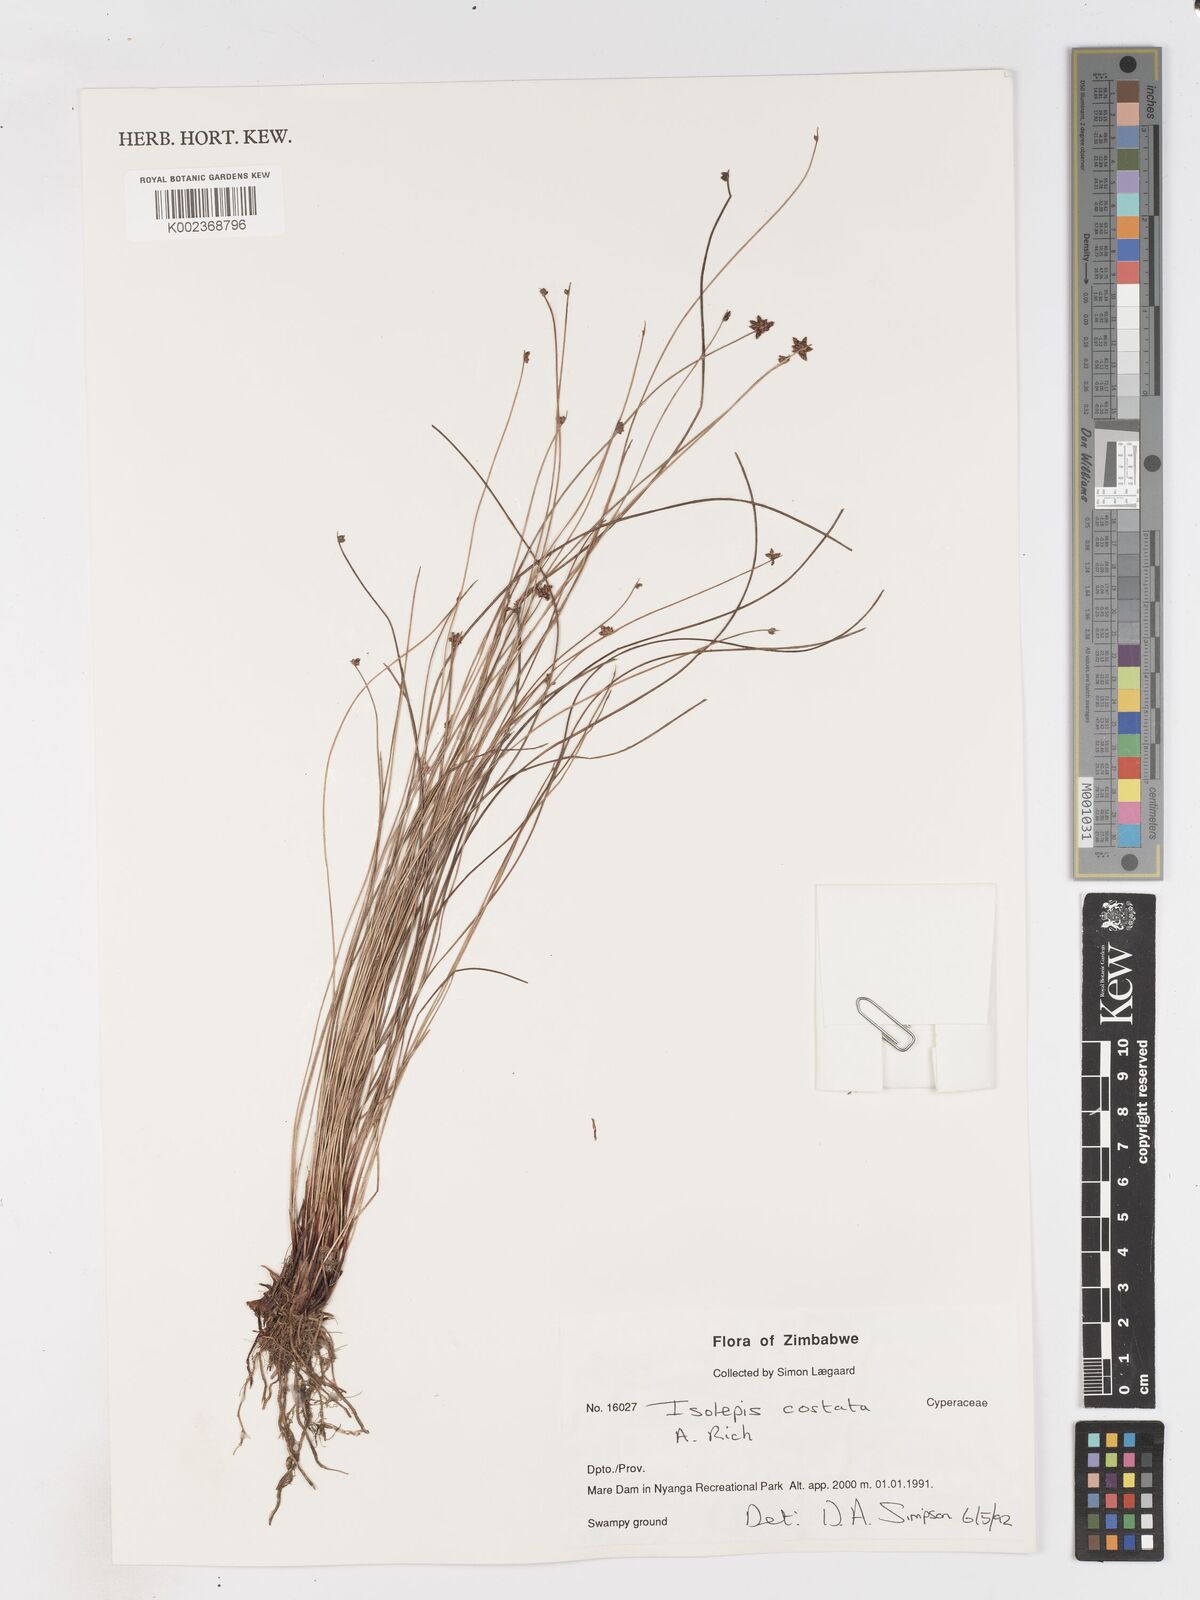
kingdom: Plantae
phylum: Tracheophyta
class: Liliopsida
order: Poales
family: Cyperaceae
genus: Isolepis
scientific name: Isolepis costata
